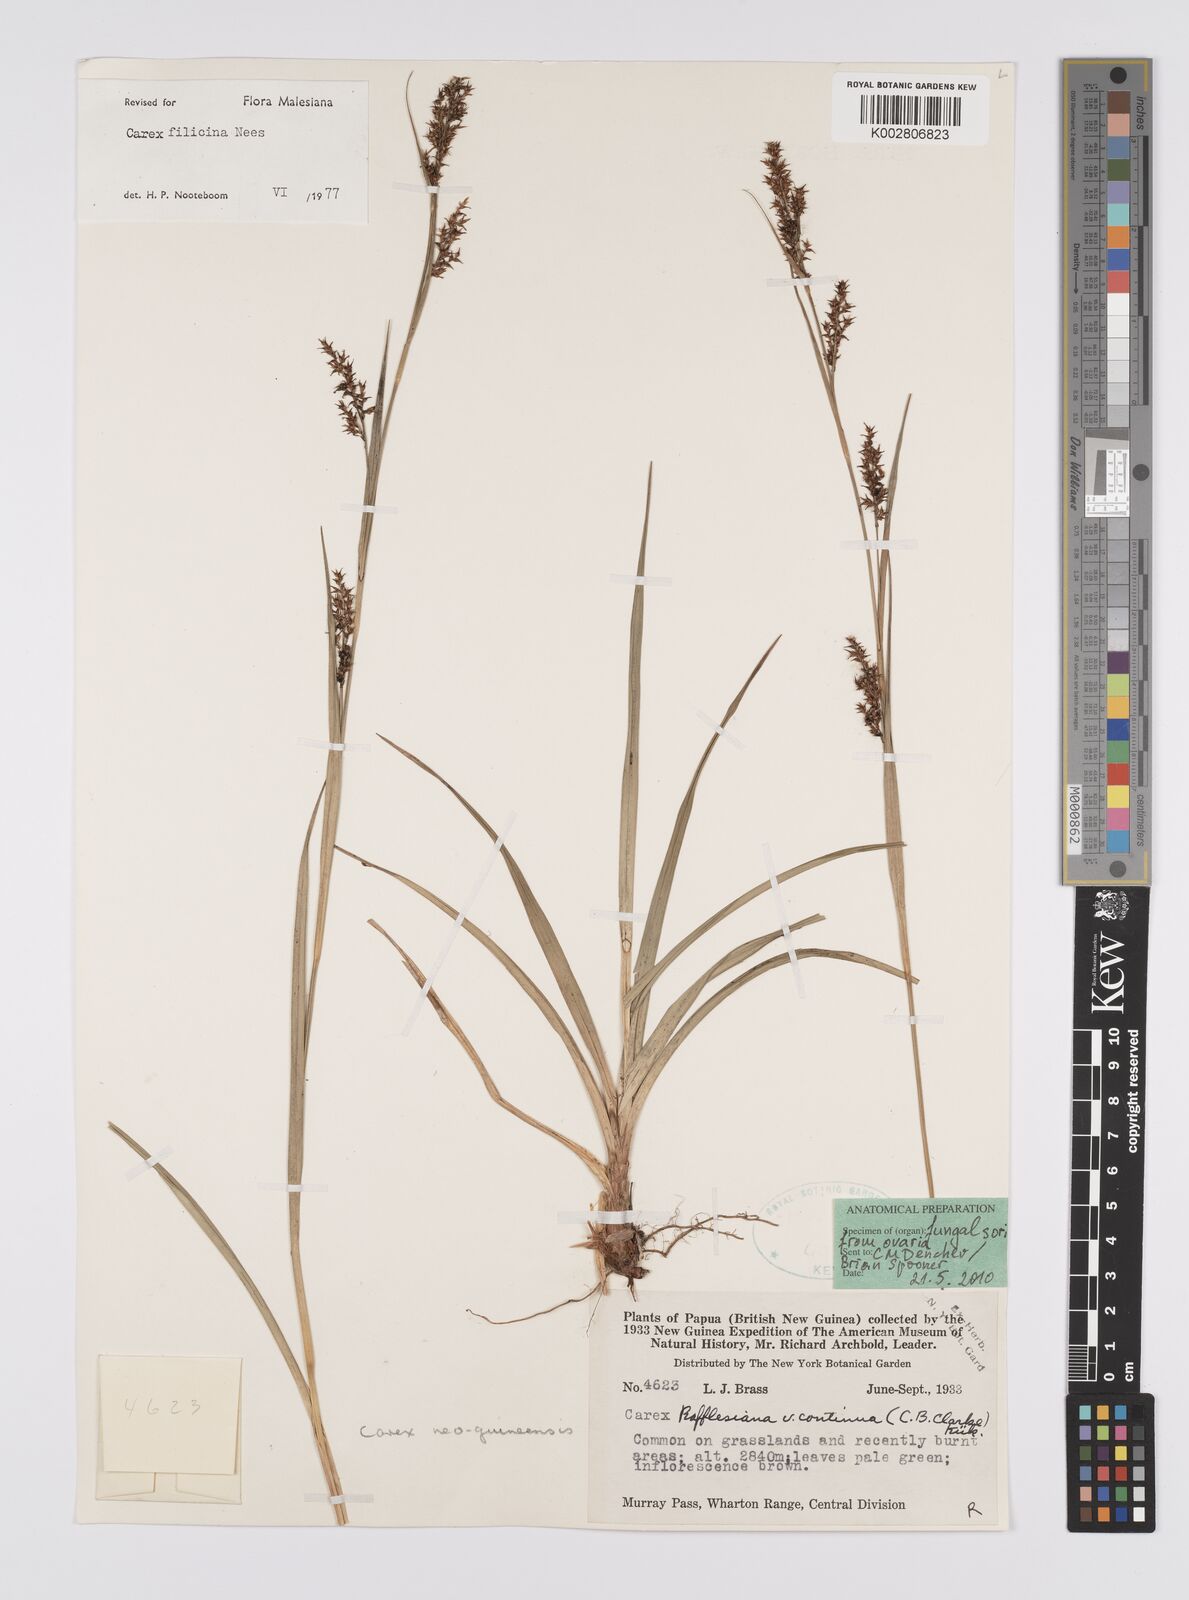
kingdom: Plantae
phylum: Tracheophyta
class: Liliopsida
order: Poales
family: Cyperaceae
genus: Carex
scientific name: Carex filicina
